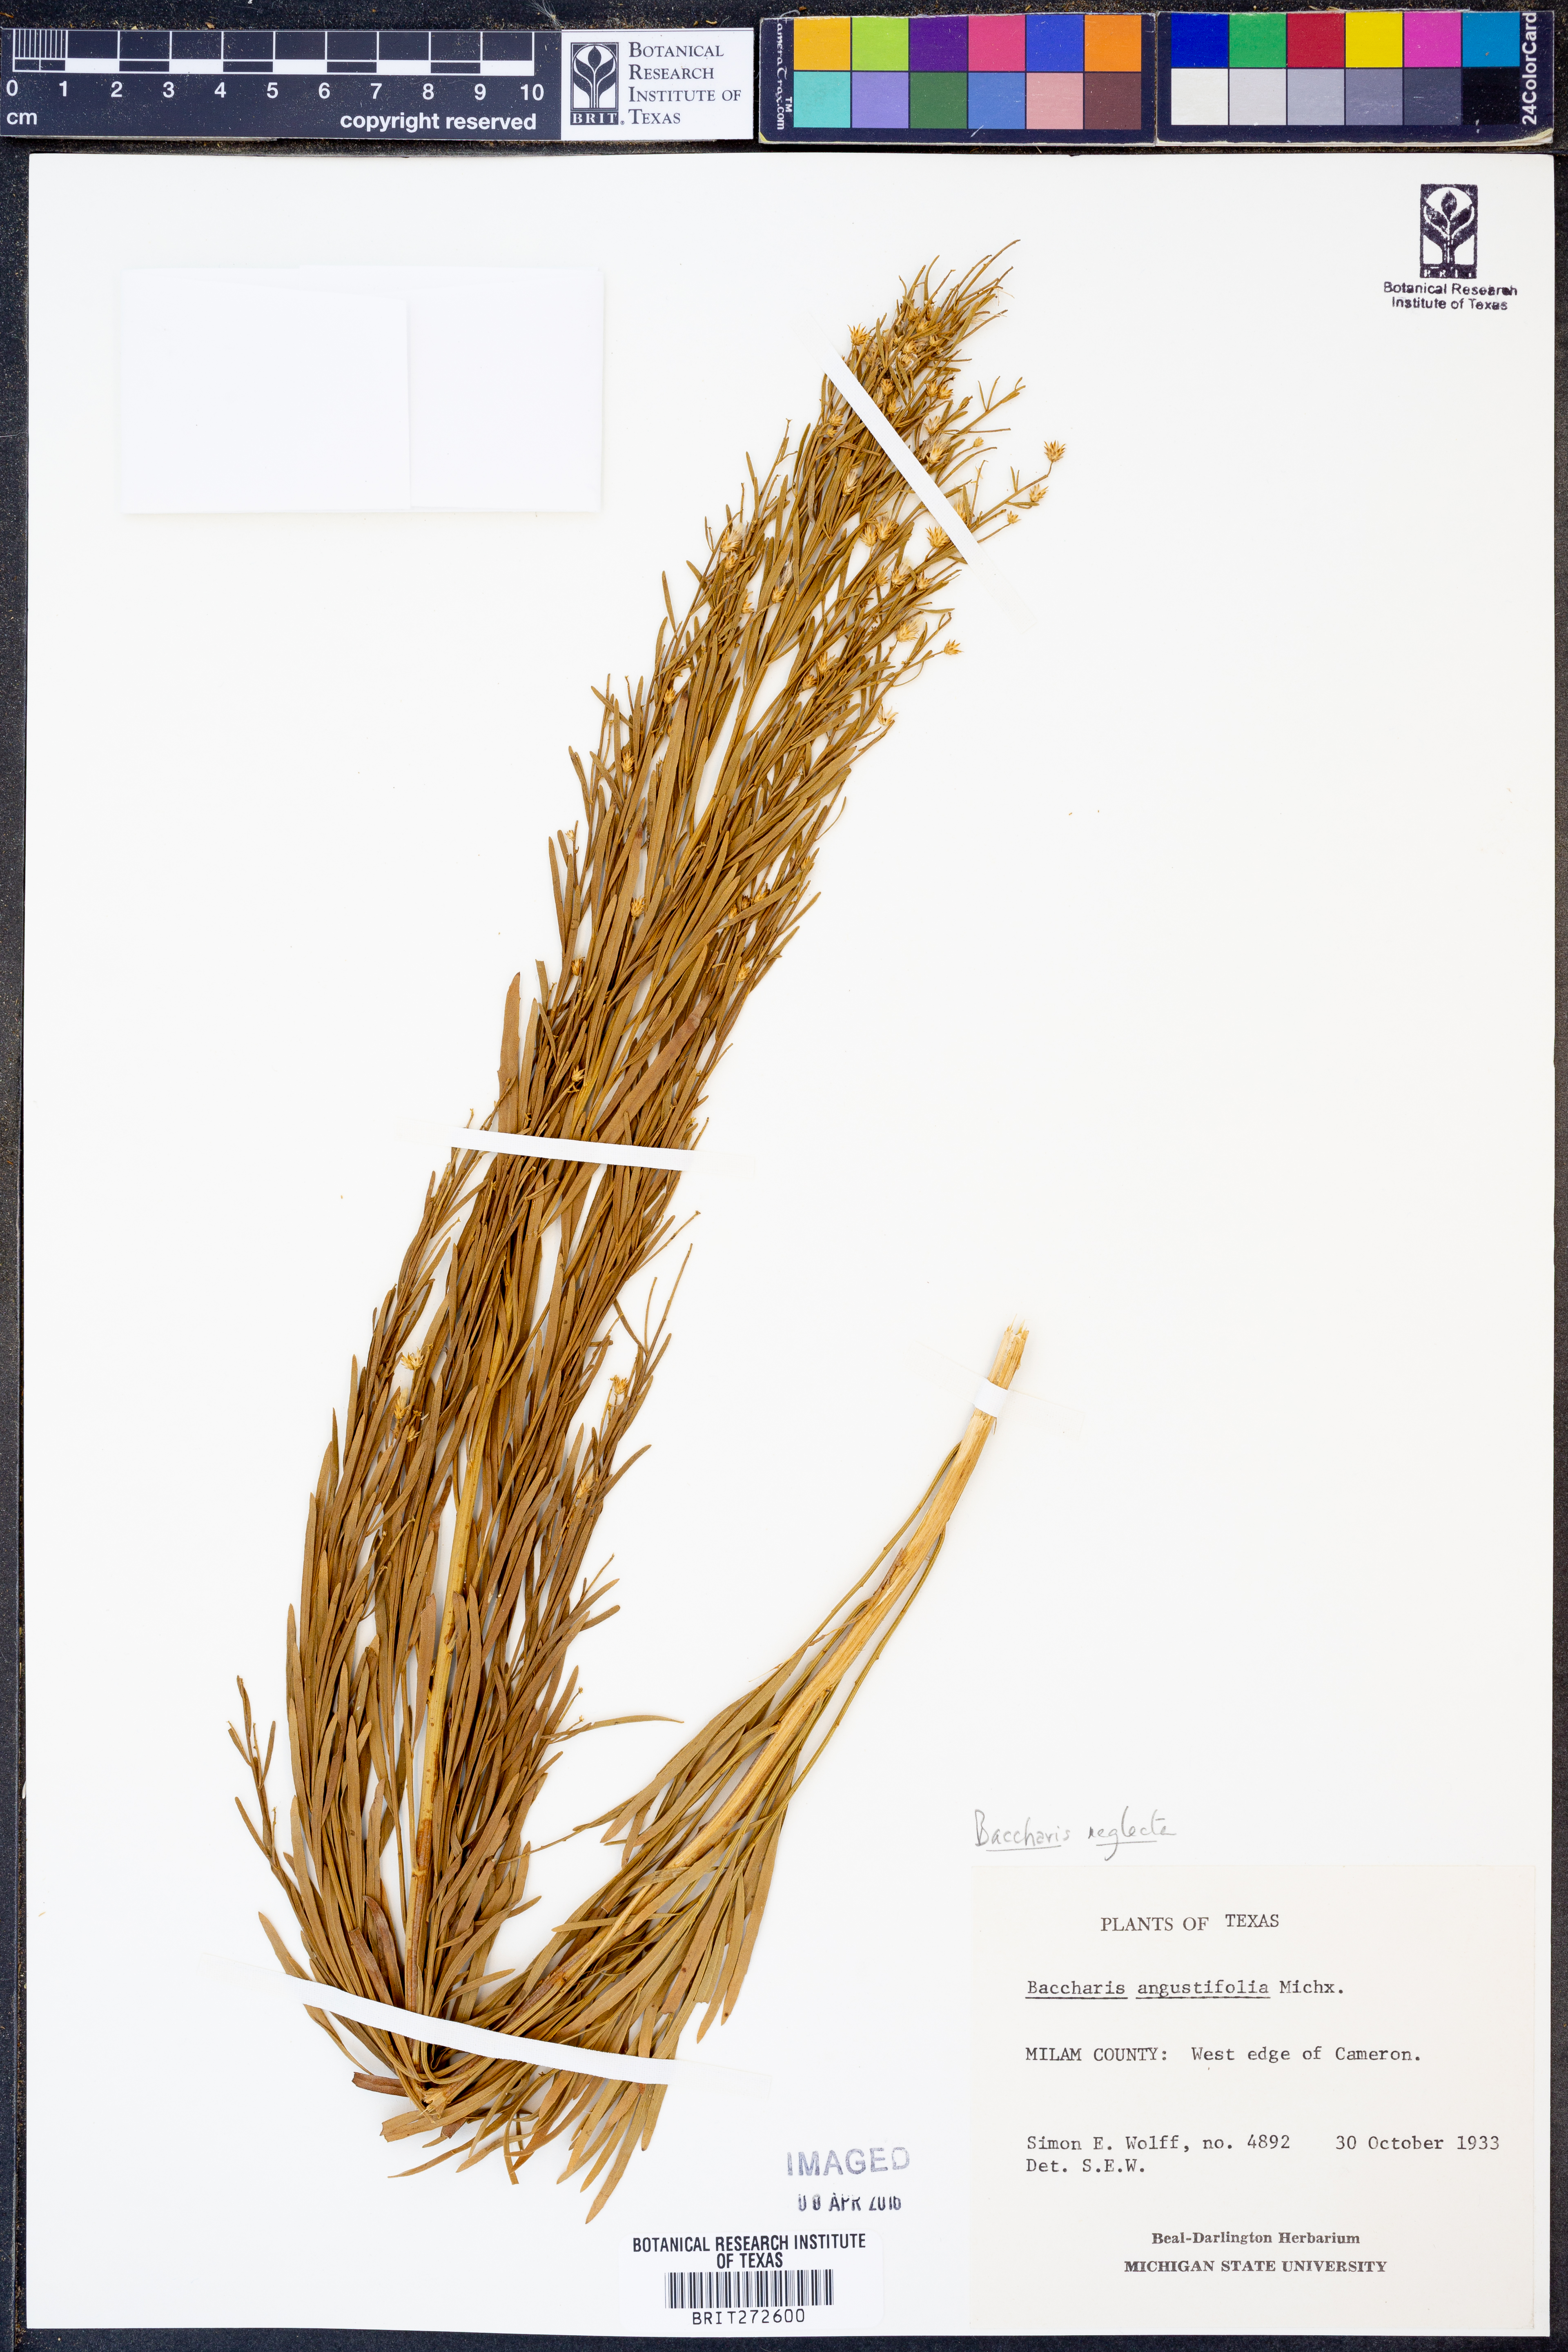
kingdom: Plantae
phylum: Tracheophyta
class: Magnoliopsida
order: Asterales
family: Asteraceae
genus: Baccharis
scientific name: Baccharis neglecta
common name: Roosevelt-weed
